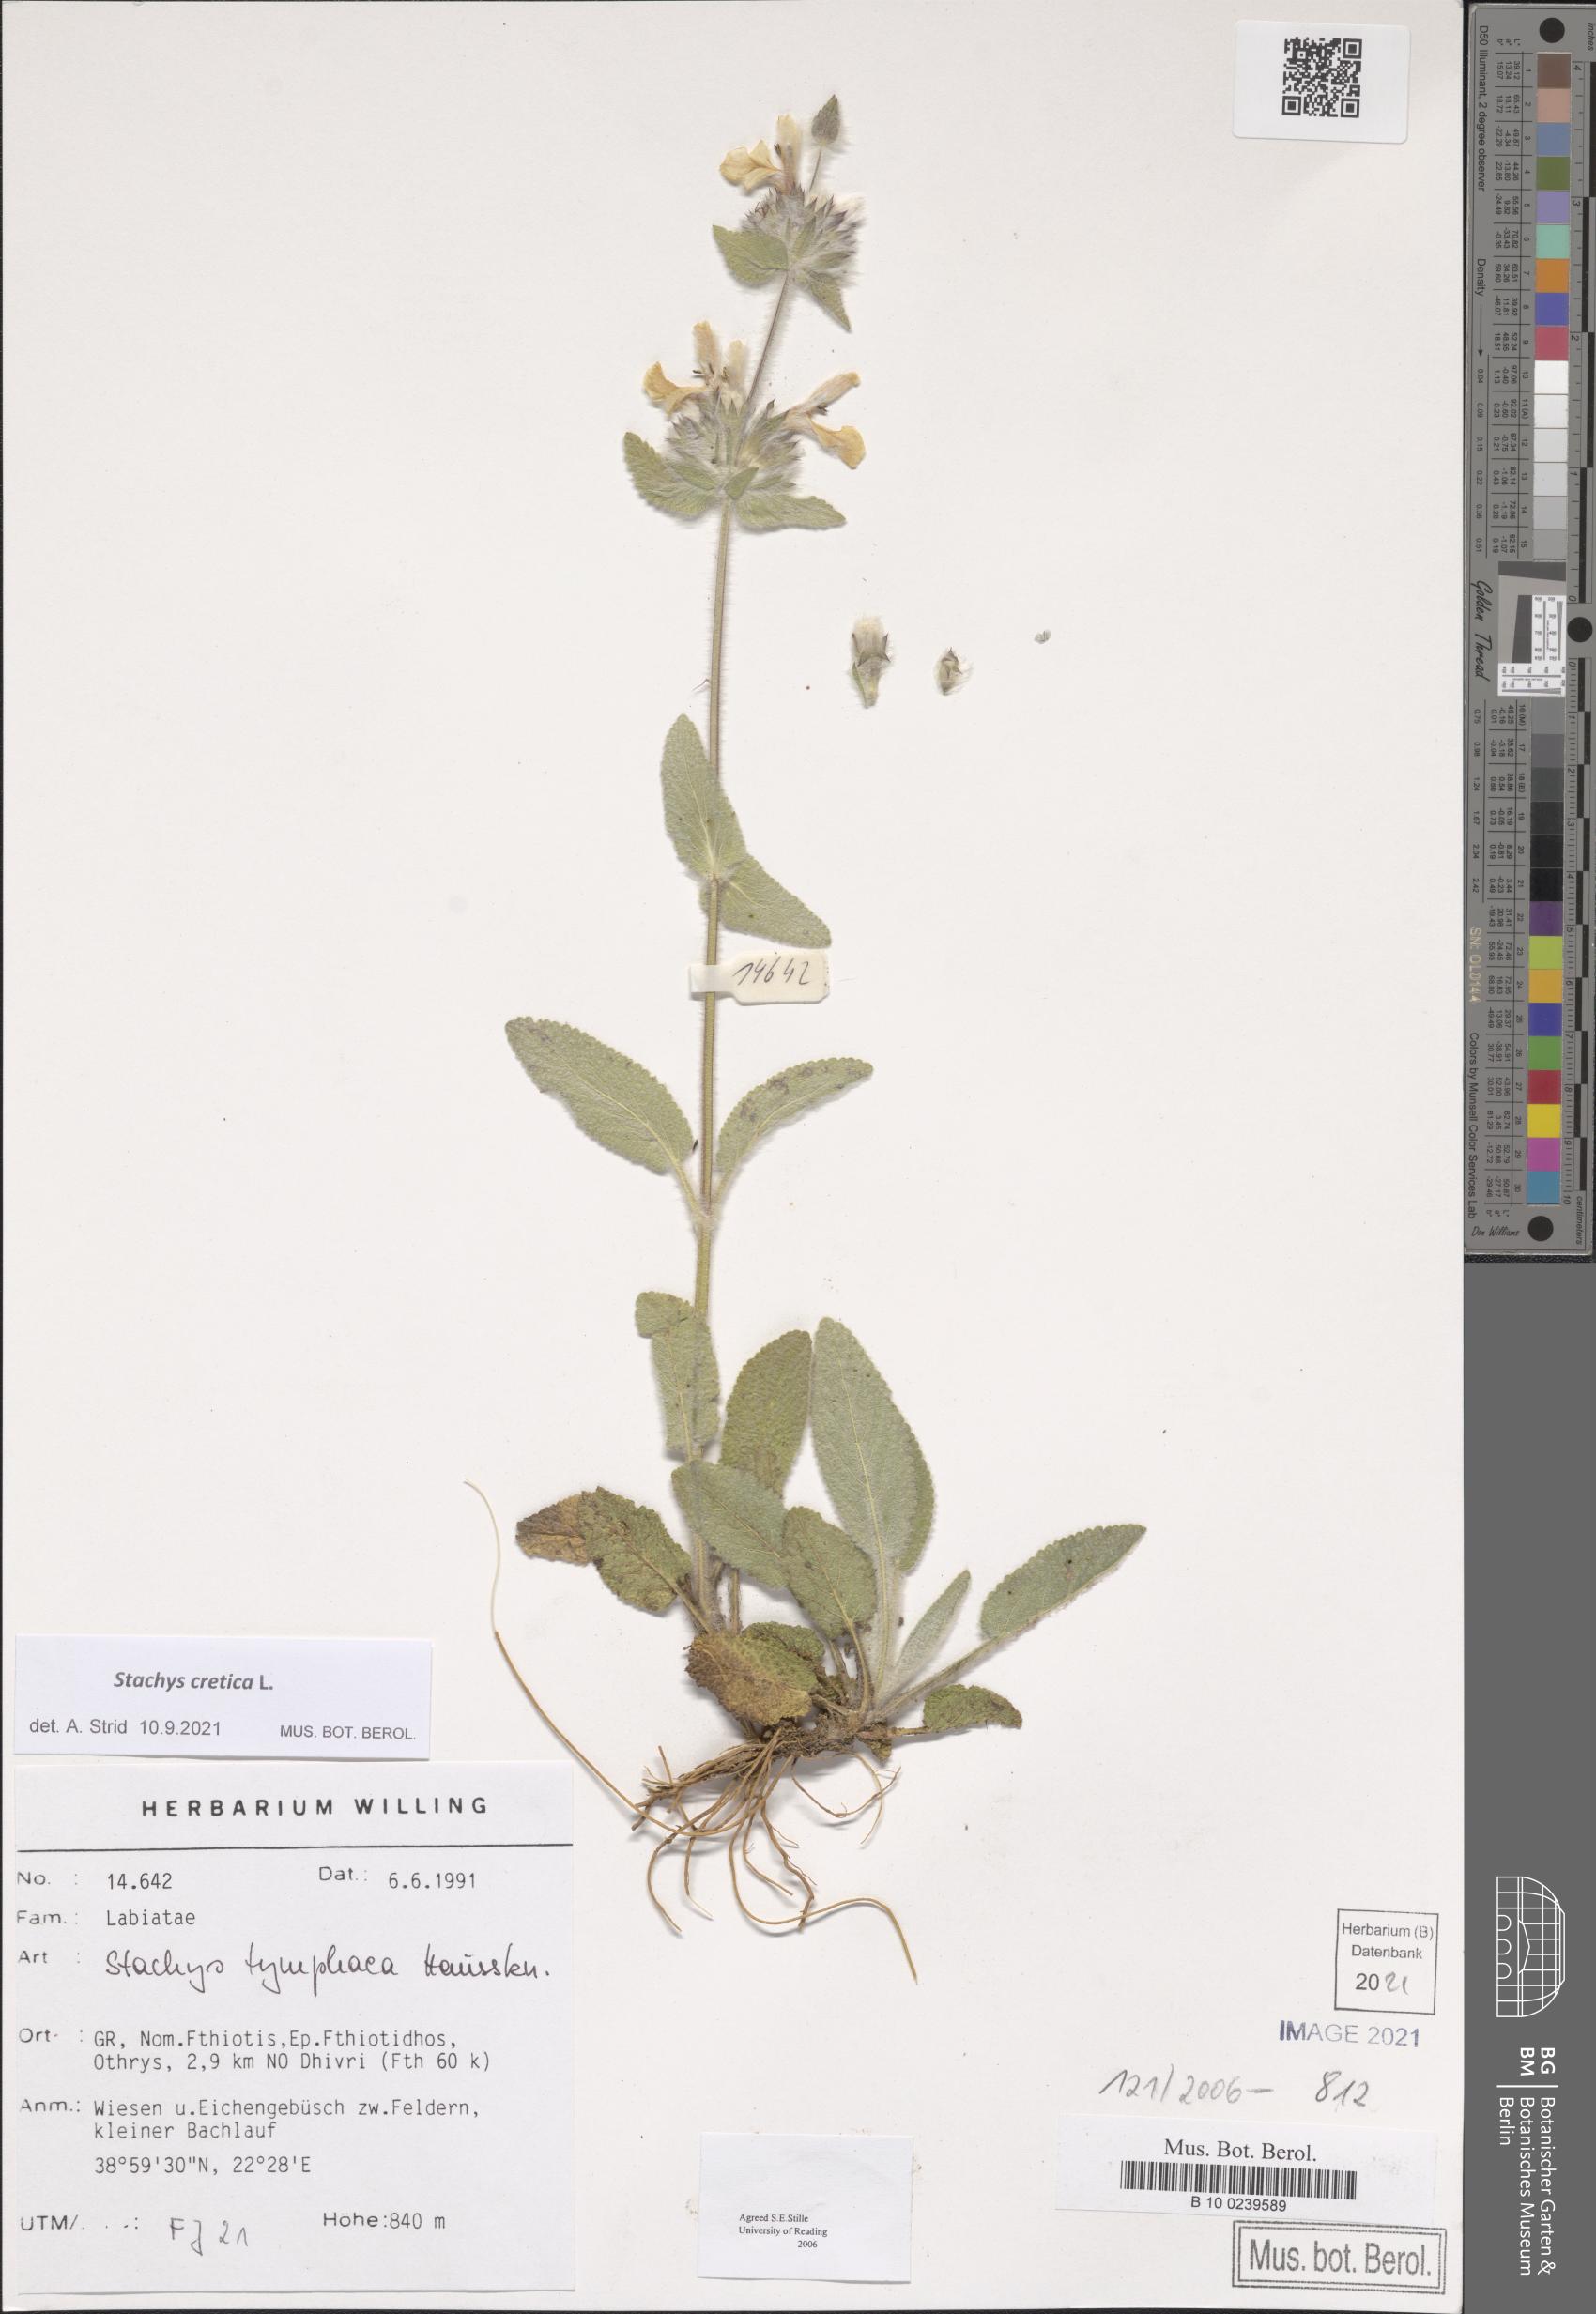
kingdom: Plantae
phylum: Tracheophyta
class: Magnoliopsida
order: Lamiales
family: Lamiaceae
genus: Stachys
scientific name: Stachys cretica
